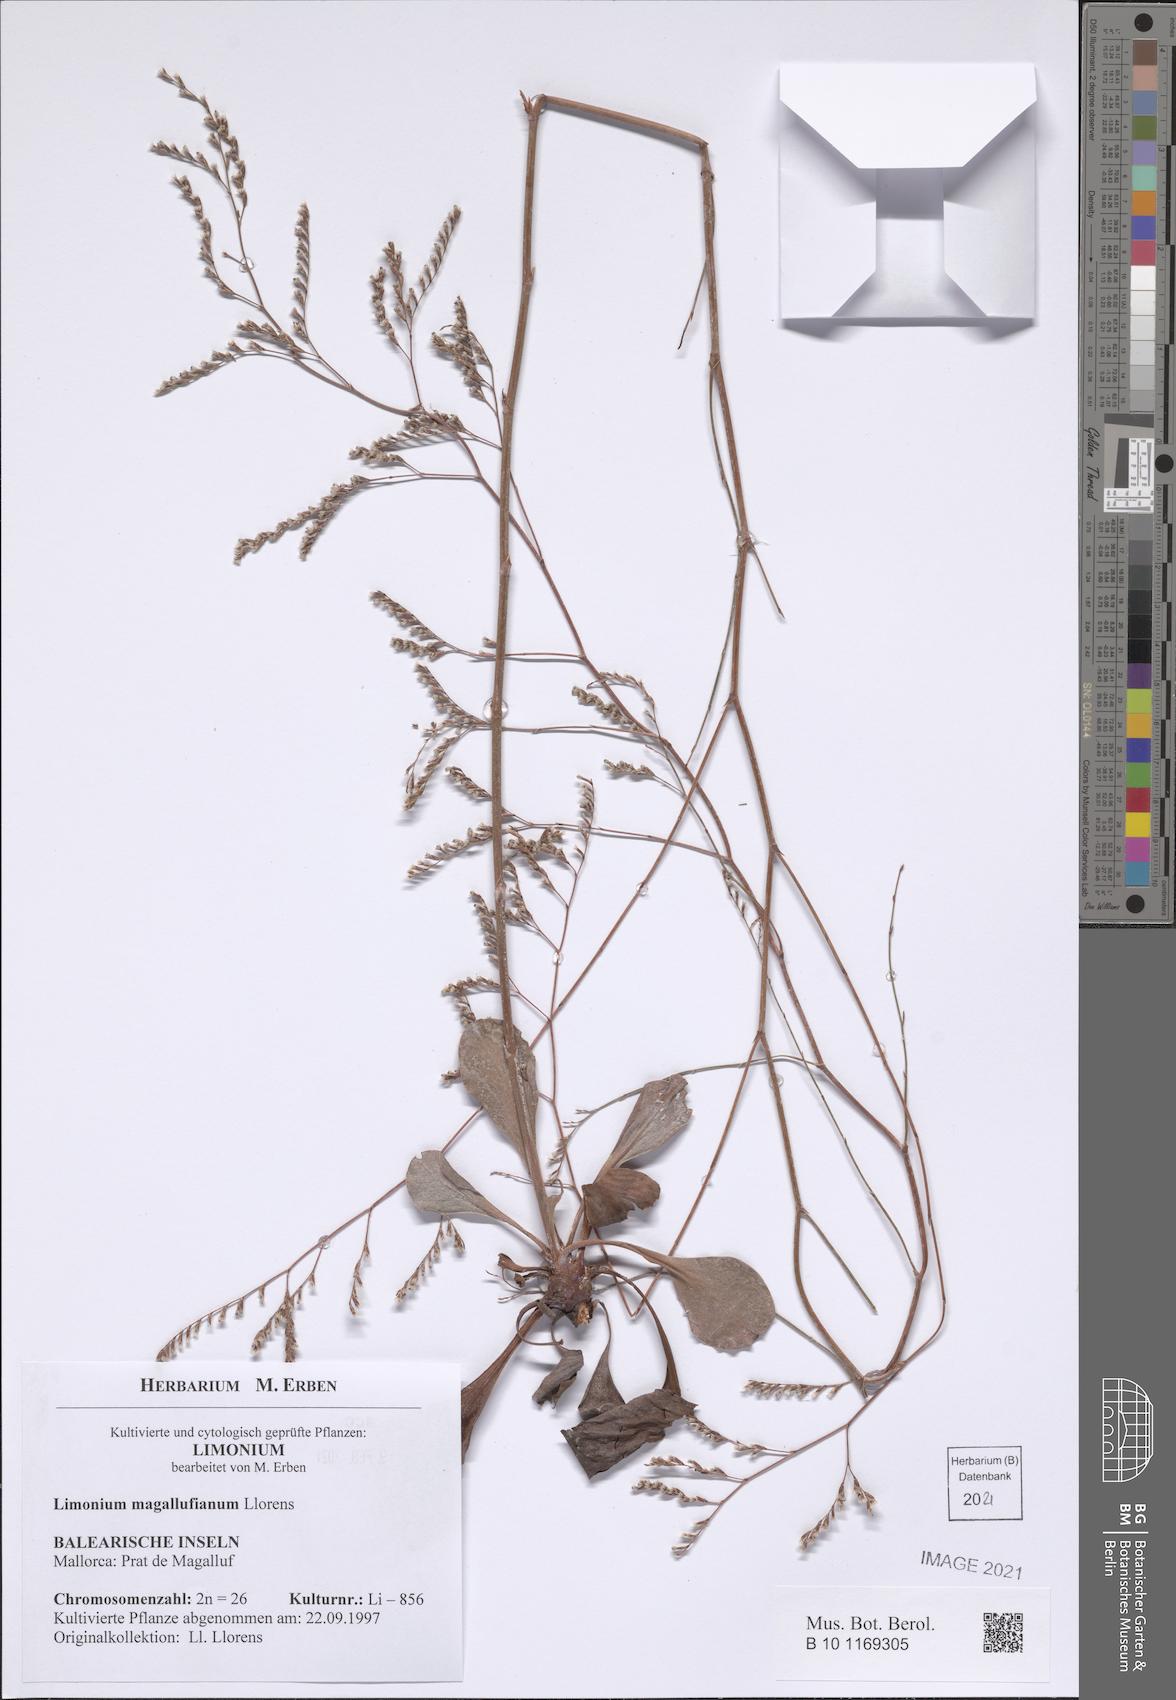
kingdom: Plantae
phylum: Tracheophyta
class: Magnoliopsida
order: Caryophyllales
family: Plumbaginaceae
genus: Limonium
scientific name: Limonium magallufianum
